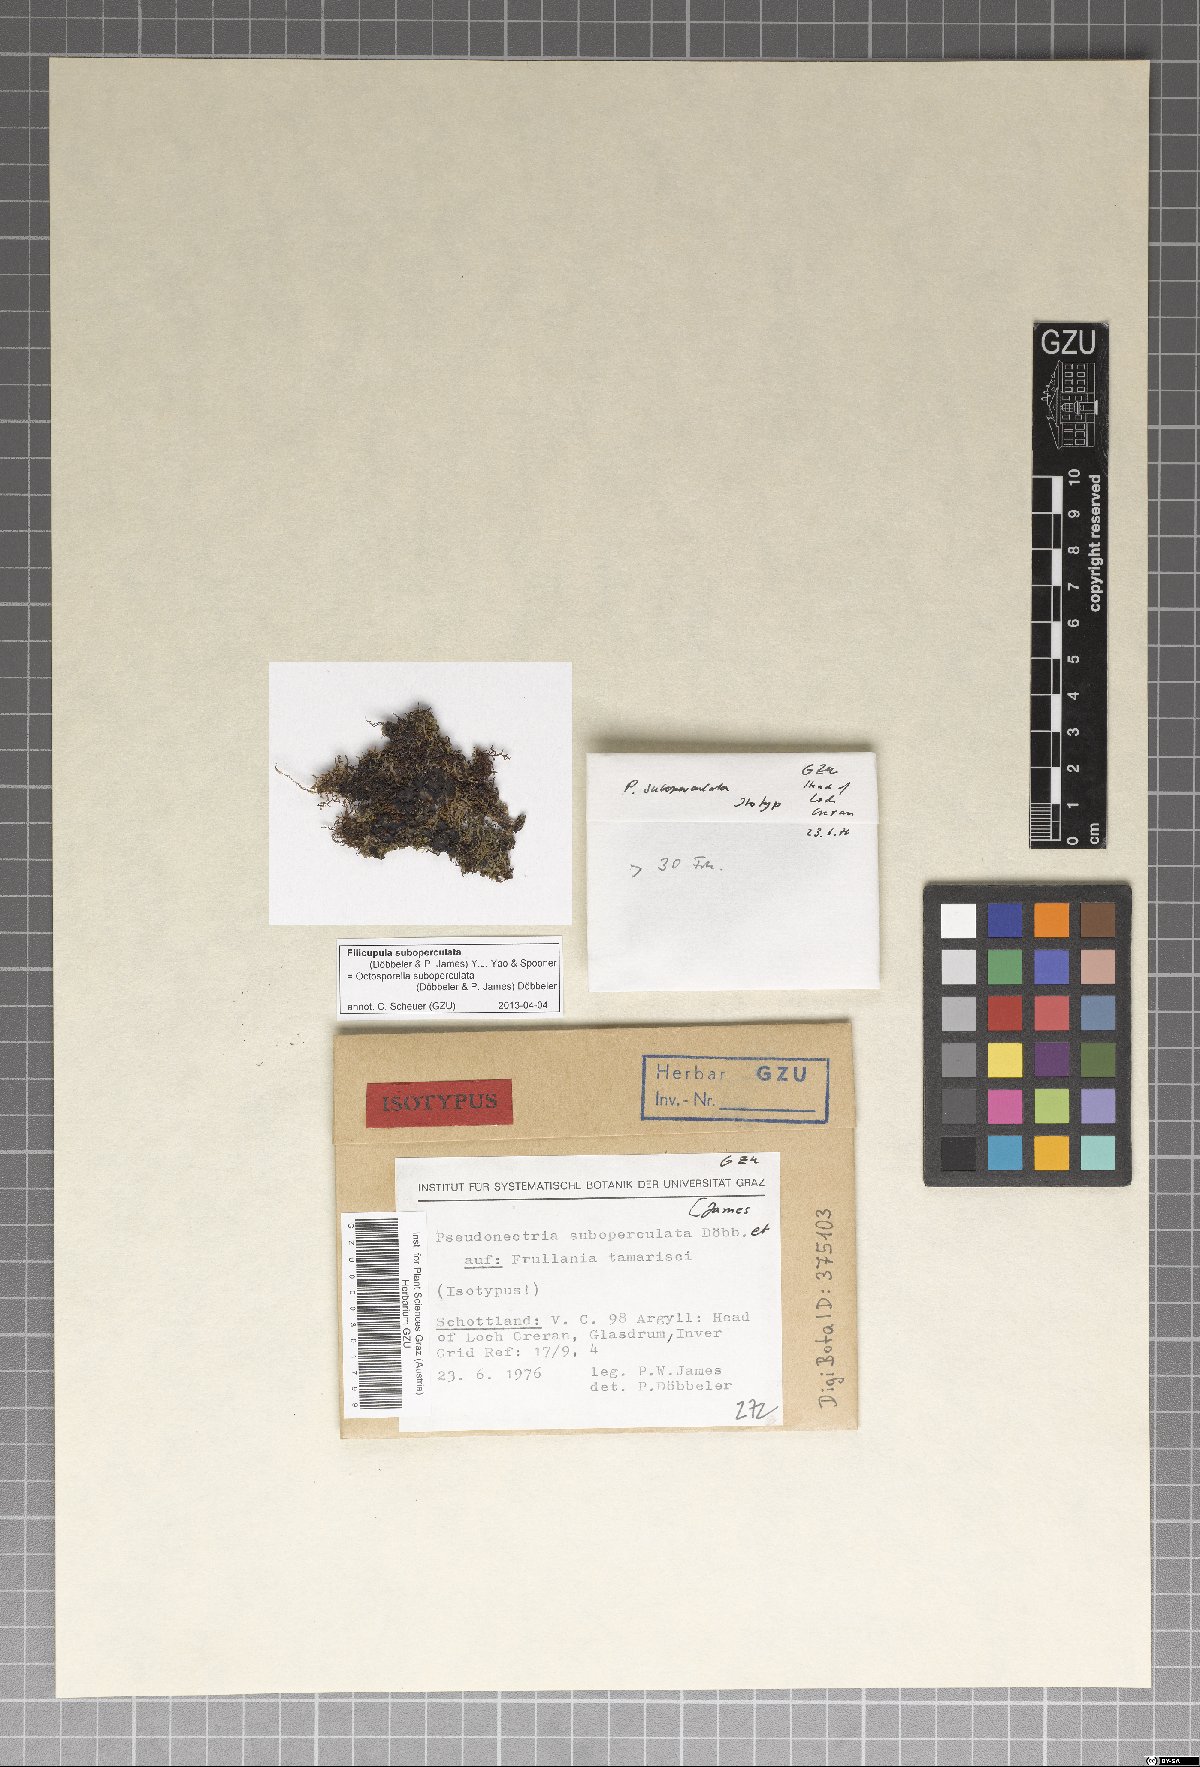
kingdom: Fungi
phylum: Ascomycota
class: Pezizomycetes
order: Pezizales
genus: Filicupula
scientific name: Filicupula suboperculata
